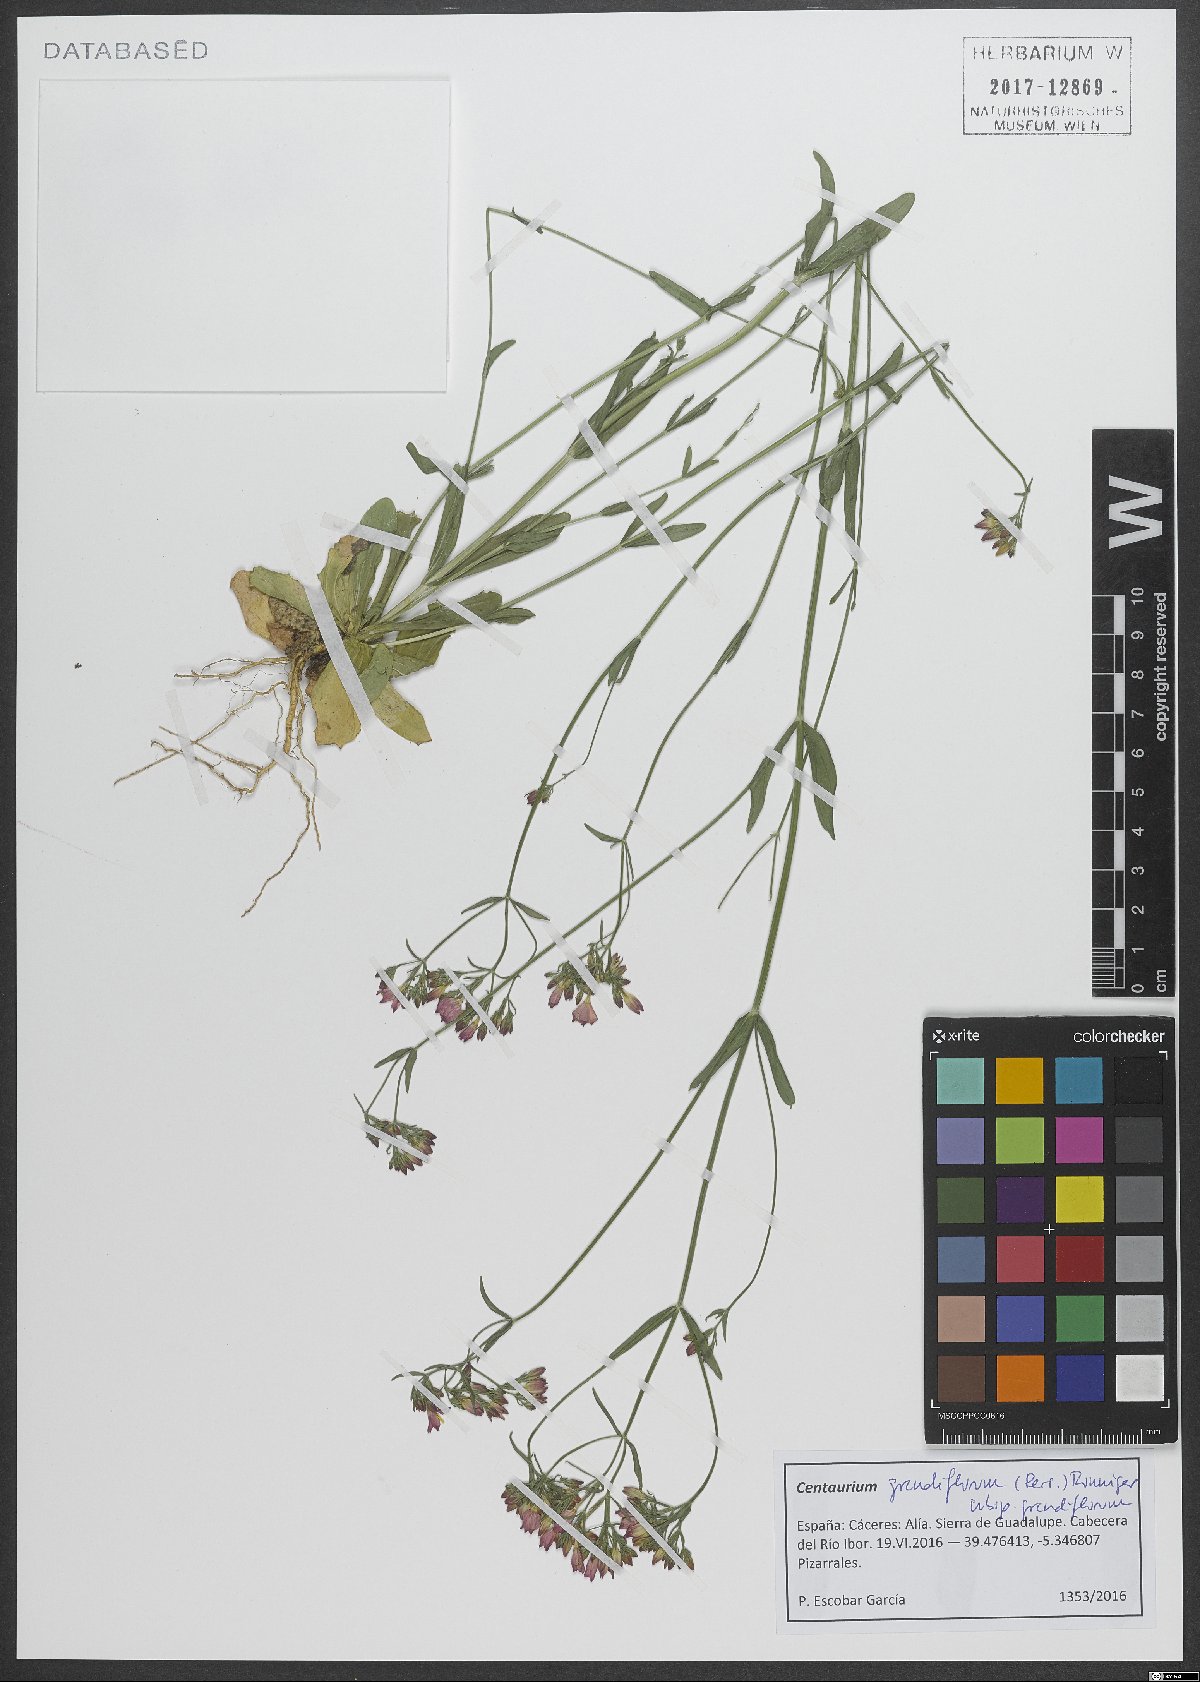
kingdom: Plantae
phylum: Tracheophyta
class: Magnoliopsida
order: Gentianales
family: Gentianaceae
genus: Centaurium
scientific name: Centaurium grandiflorum
